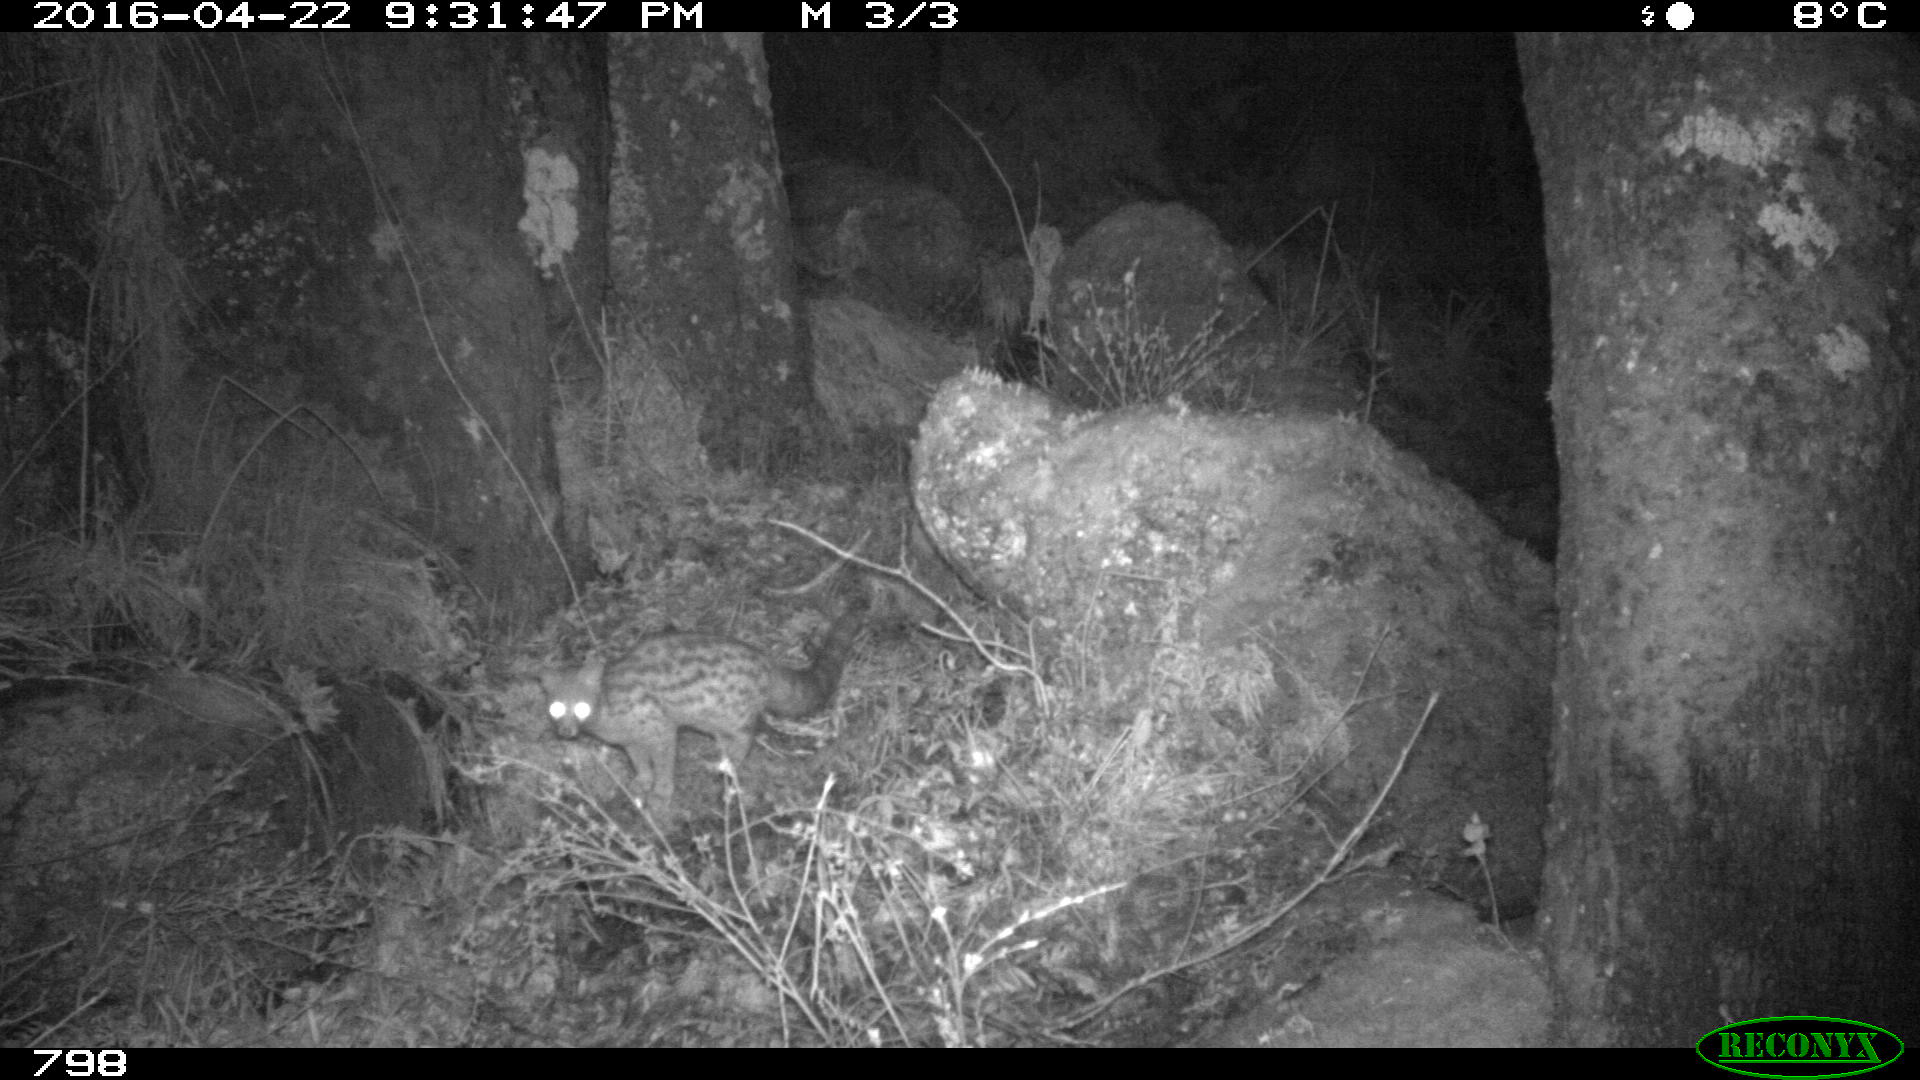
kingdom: Animalia
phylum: Chordata
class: Mammalia
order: Carnivora
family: Viverridae
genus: Genetta
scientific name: Genetta genetta
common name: Common genet
